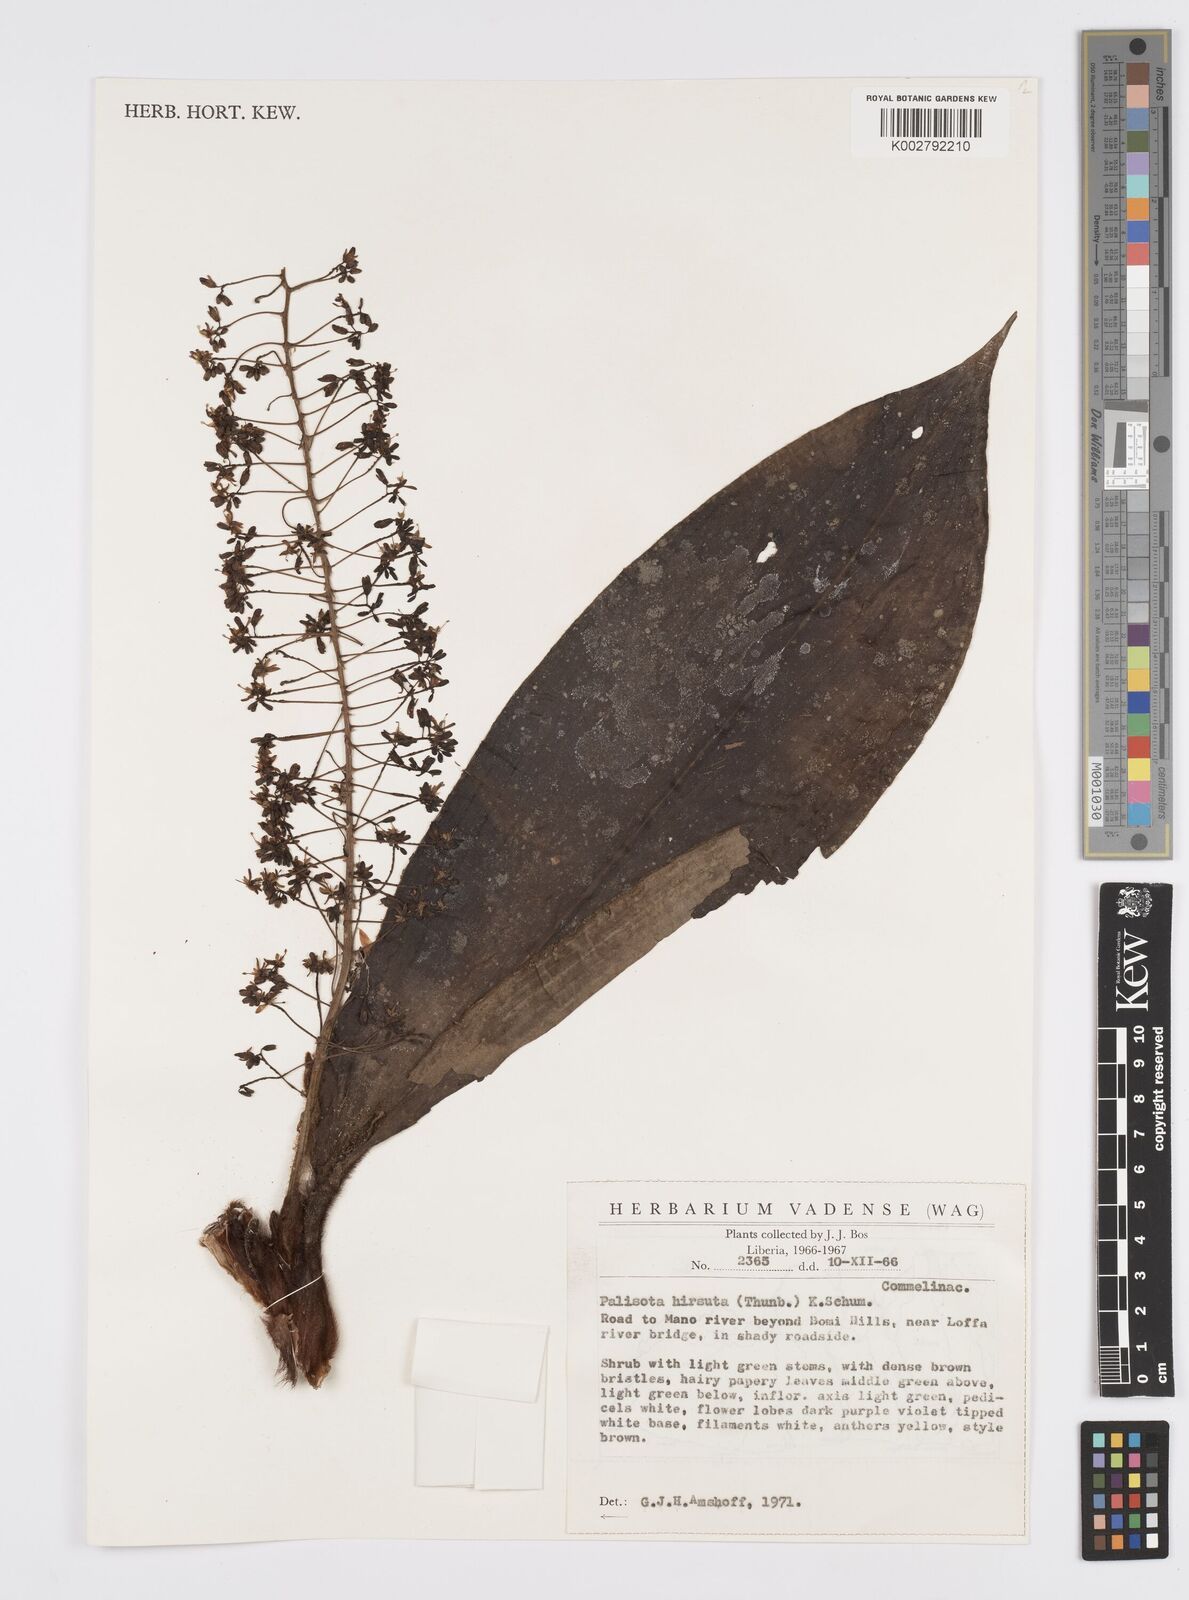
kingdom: Plantae
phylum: Tracheophyta
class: Liliopsida
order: Commelinales
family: Commelinaceae
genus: Palisota
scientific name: Palisota hirsuta
